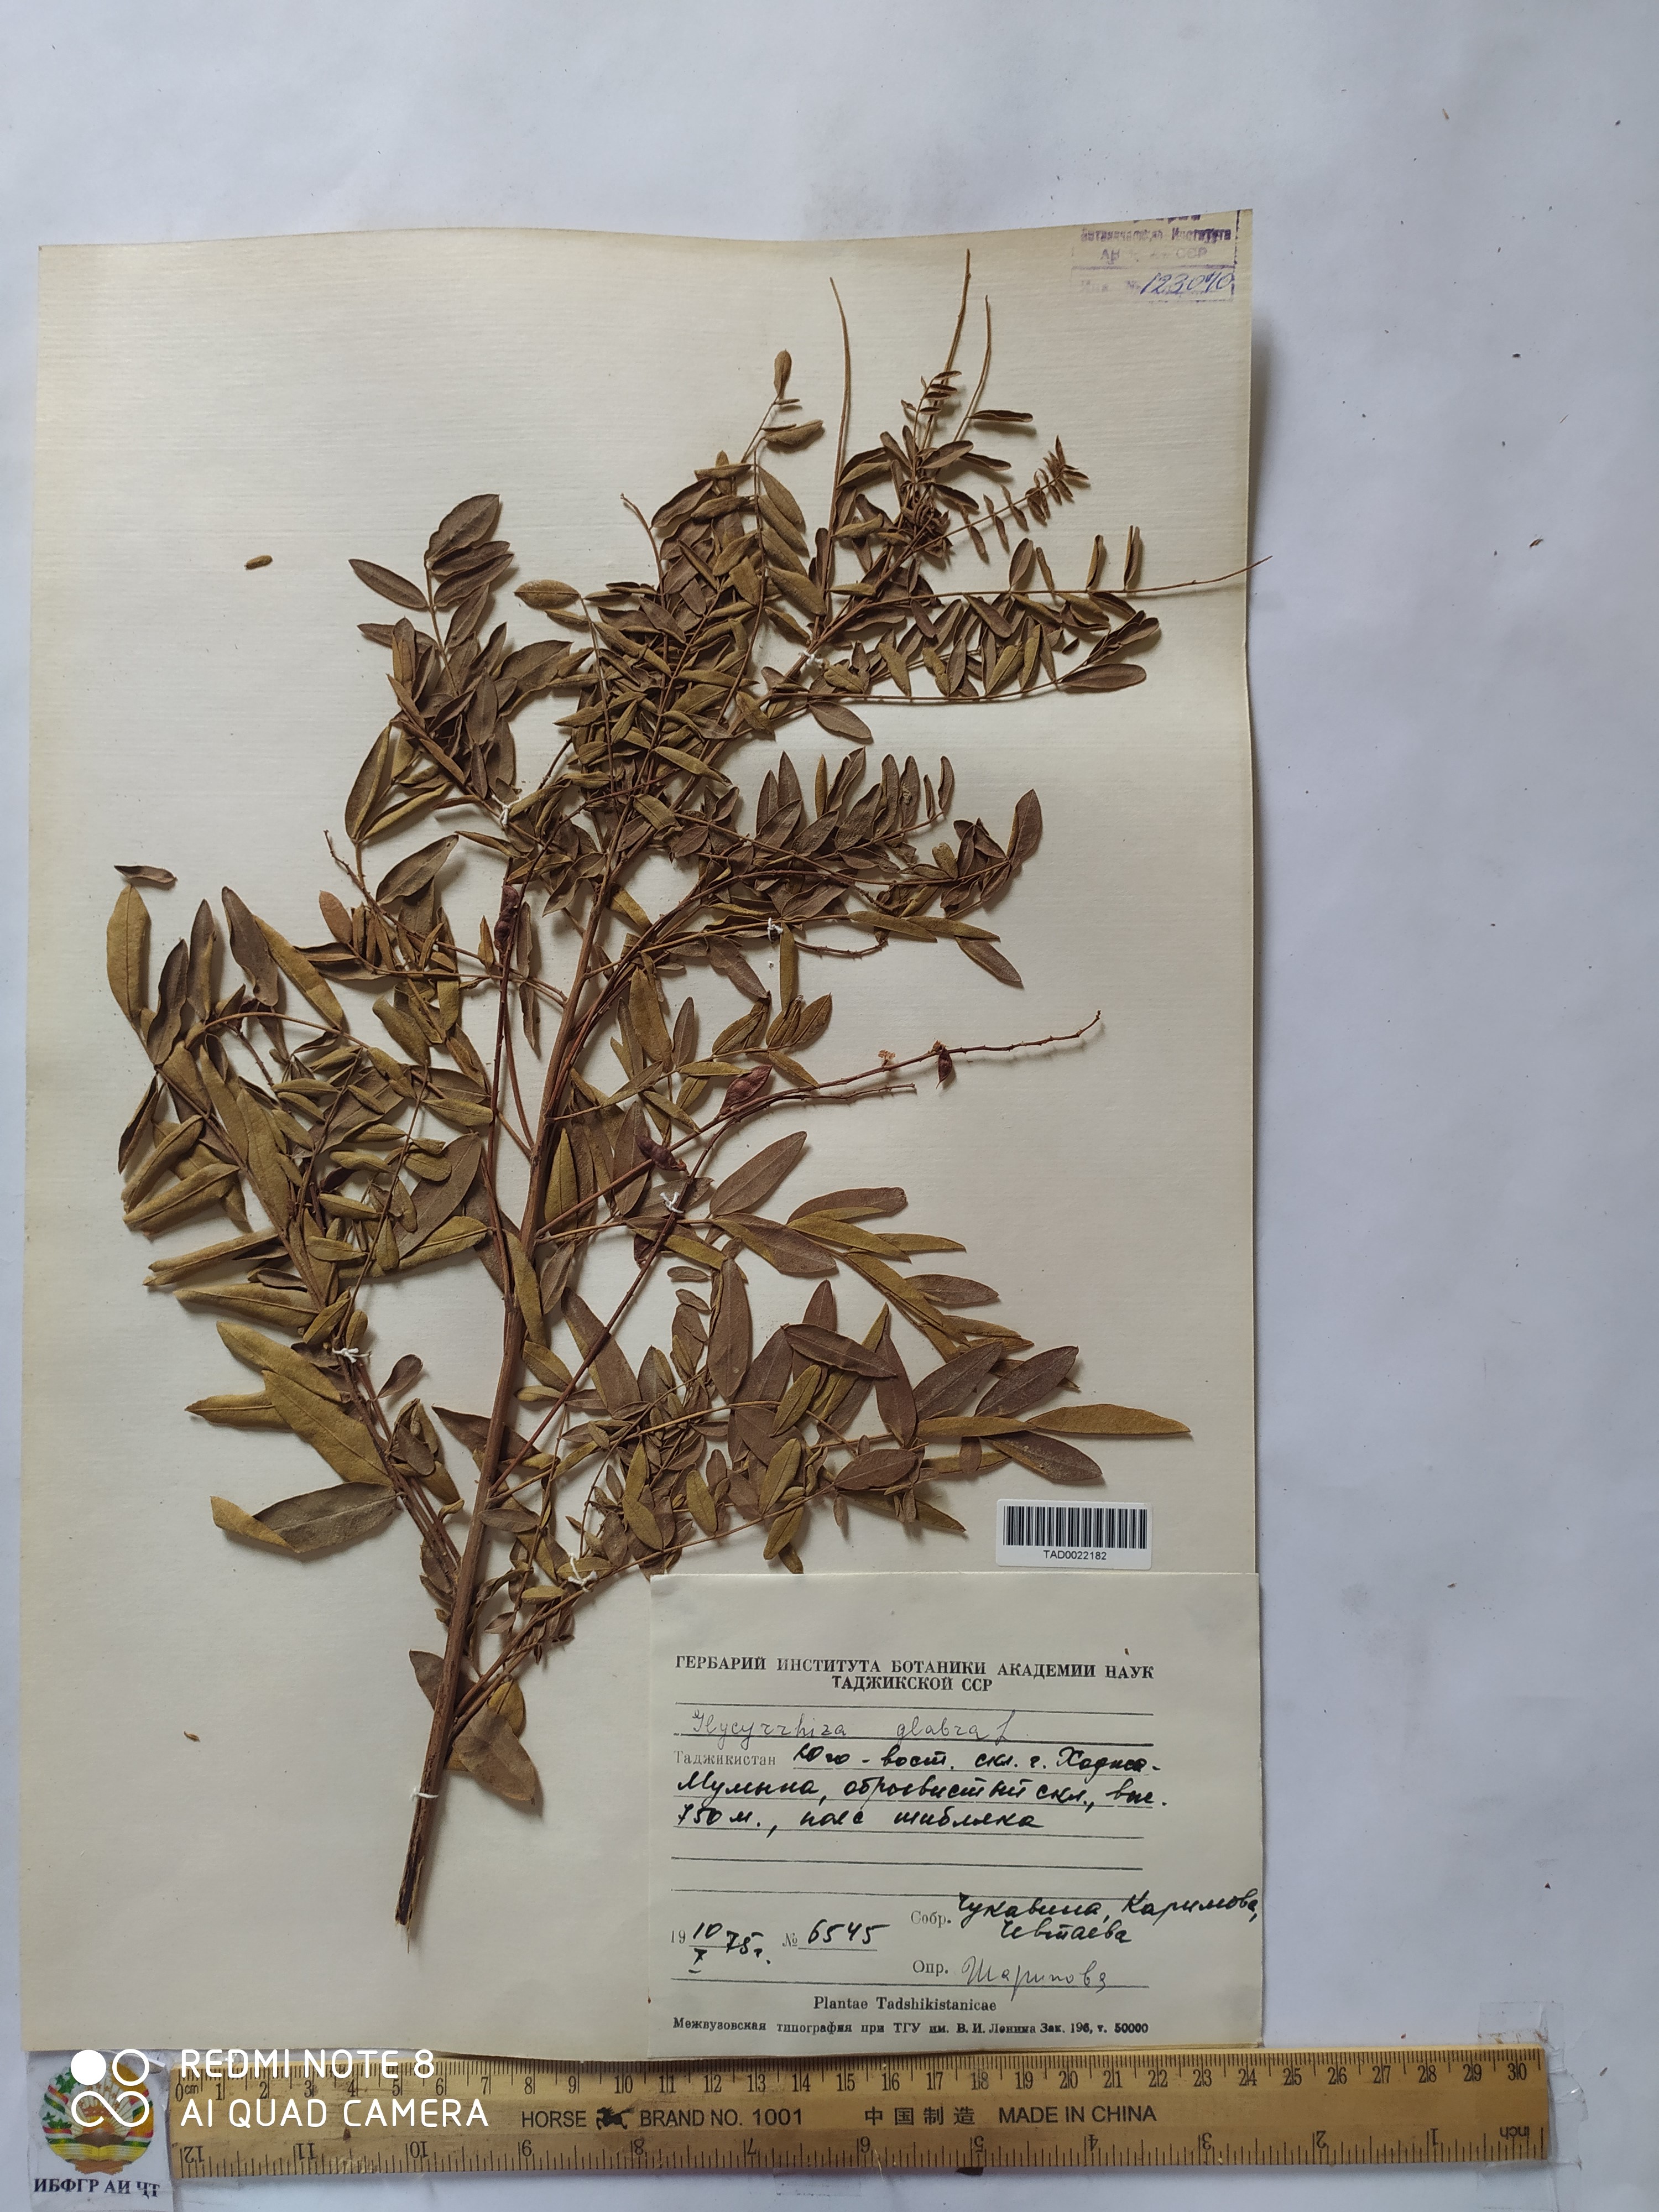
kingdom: Plantae
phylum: Tracheophyta
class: Magnoliopsida
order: Fabales
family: Fabaceae
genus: Glycyrrhiza
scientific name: Glycyrrhiza glabra
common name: Liquorice
